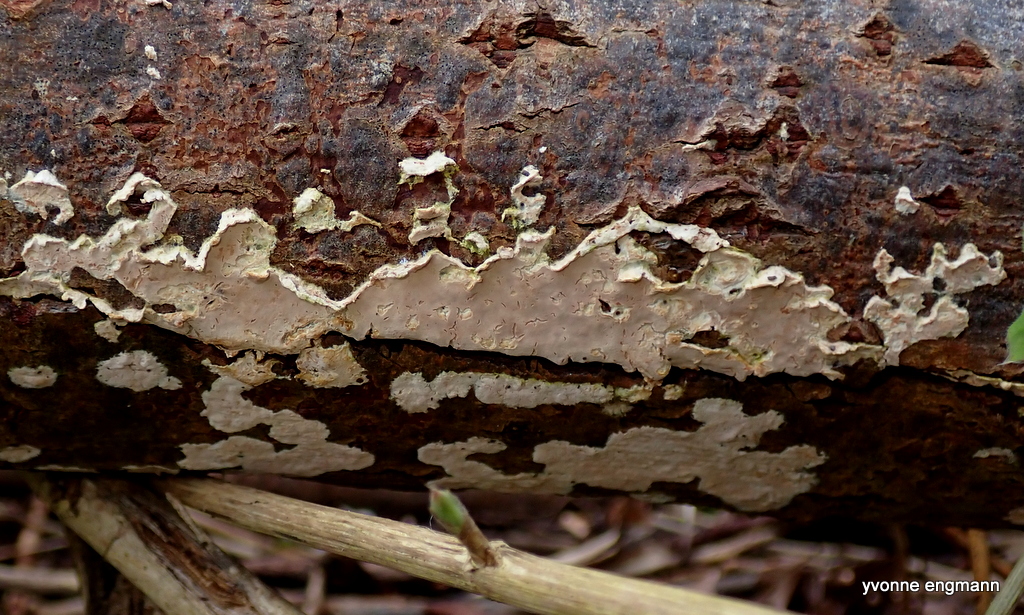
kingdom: Fungi
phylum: Basidiomycota
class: Agaricomycetes
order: Agaricales
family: Physalacriaceae
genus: Cylindrobasidium
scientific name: Cylindrobasidium evolvens
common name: sprækkehinde
